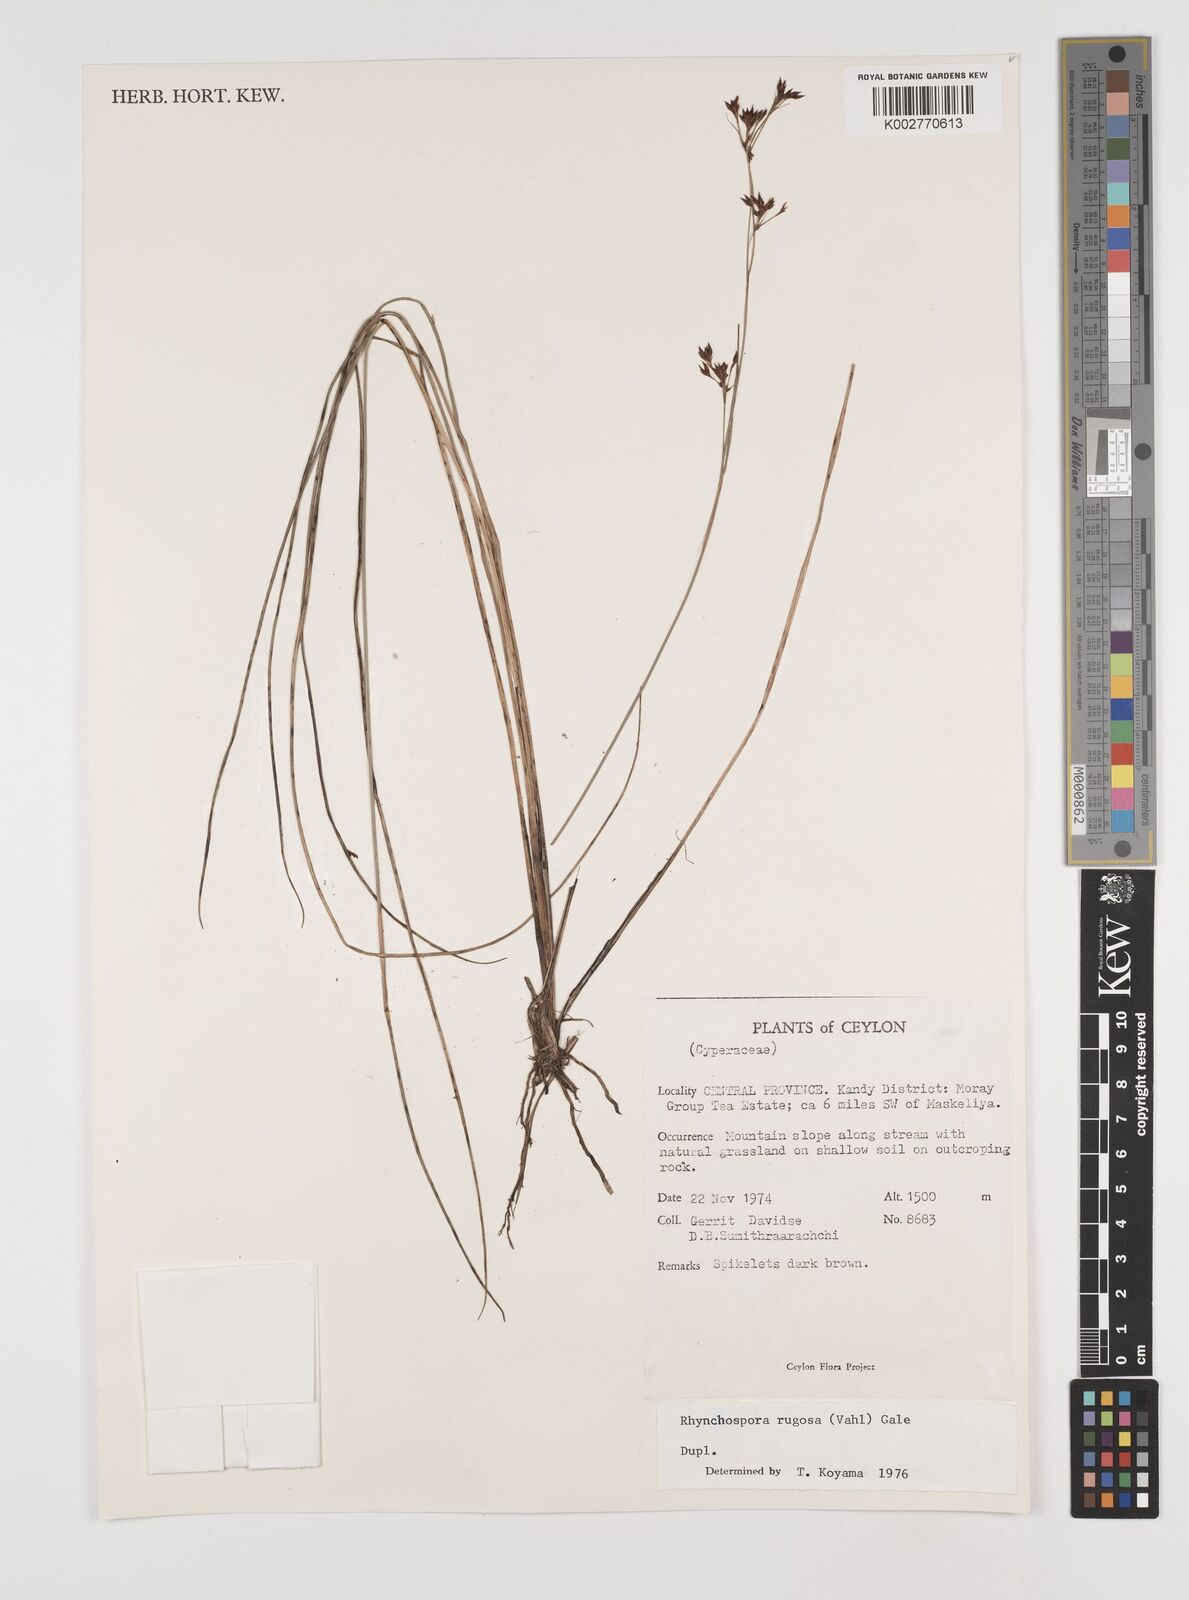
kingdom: Plantae
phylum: Tracheophyta
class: Liliopsida
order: Poales
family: Cyperaceae
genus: Rhynchospora
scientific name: Rhynchospora rugosa
